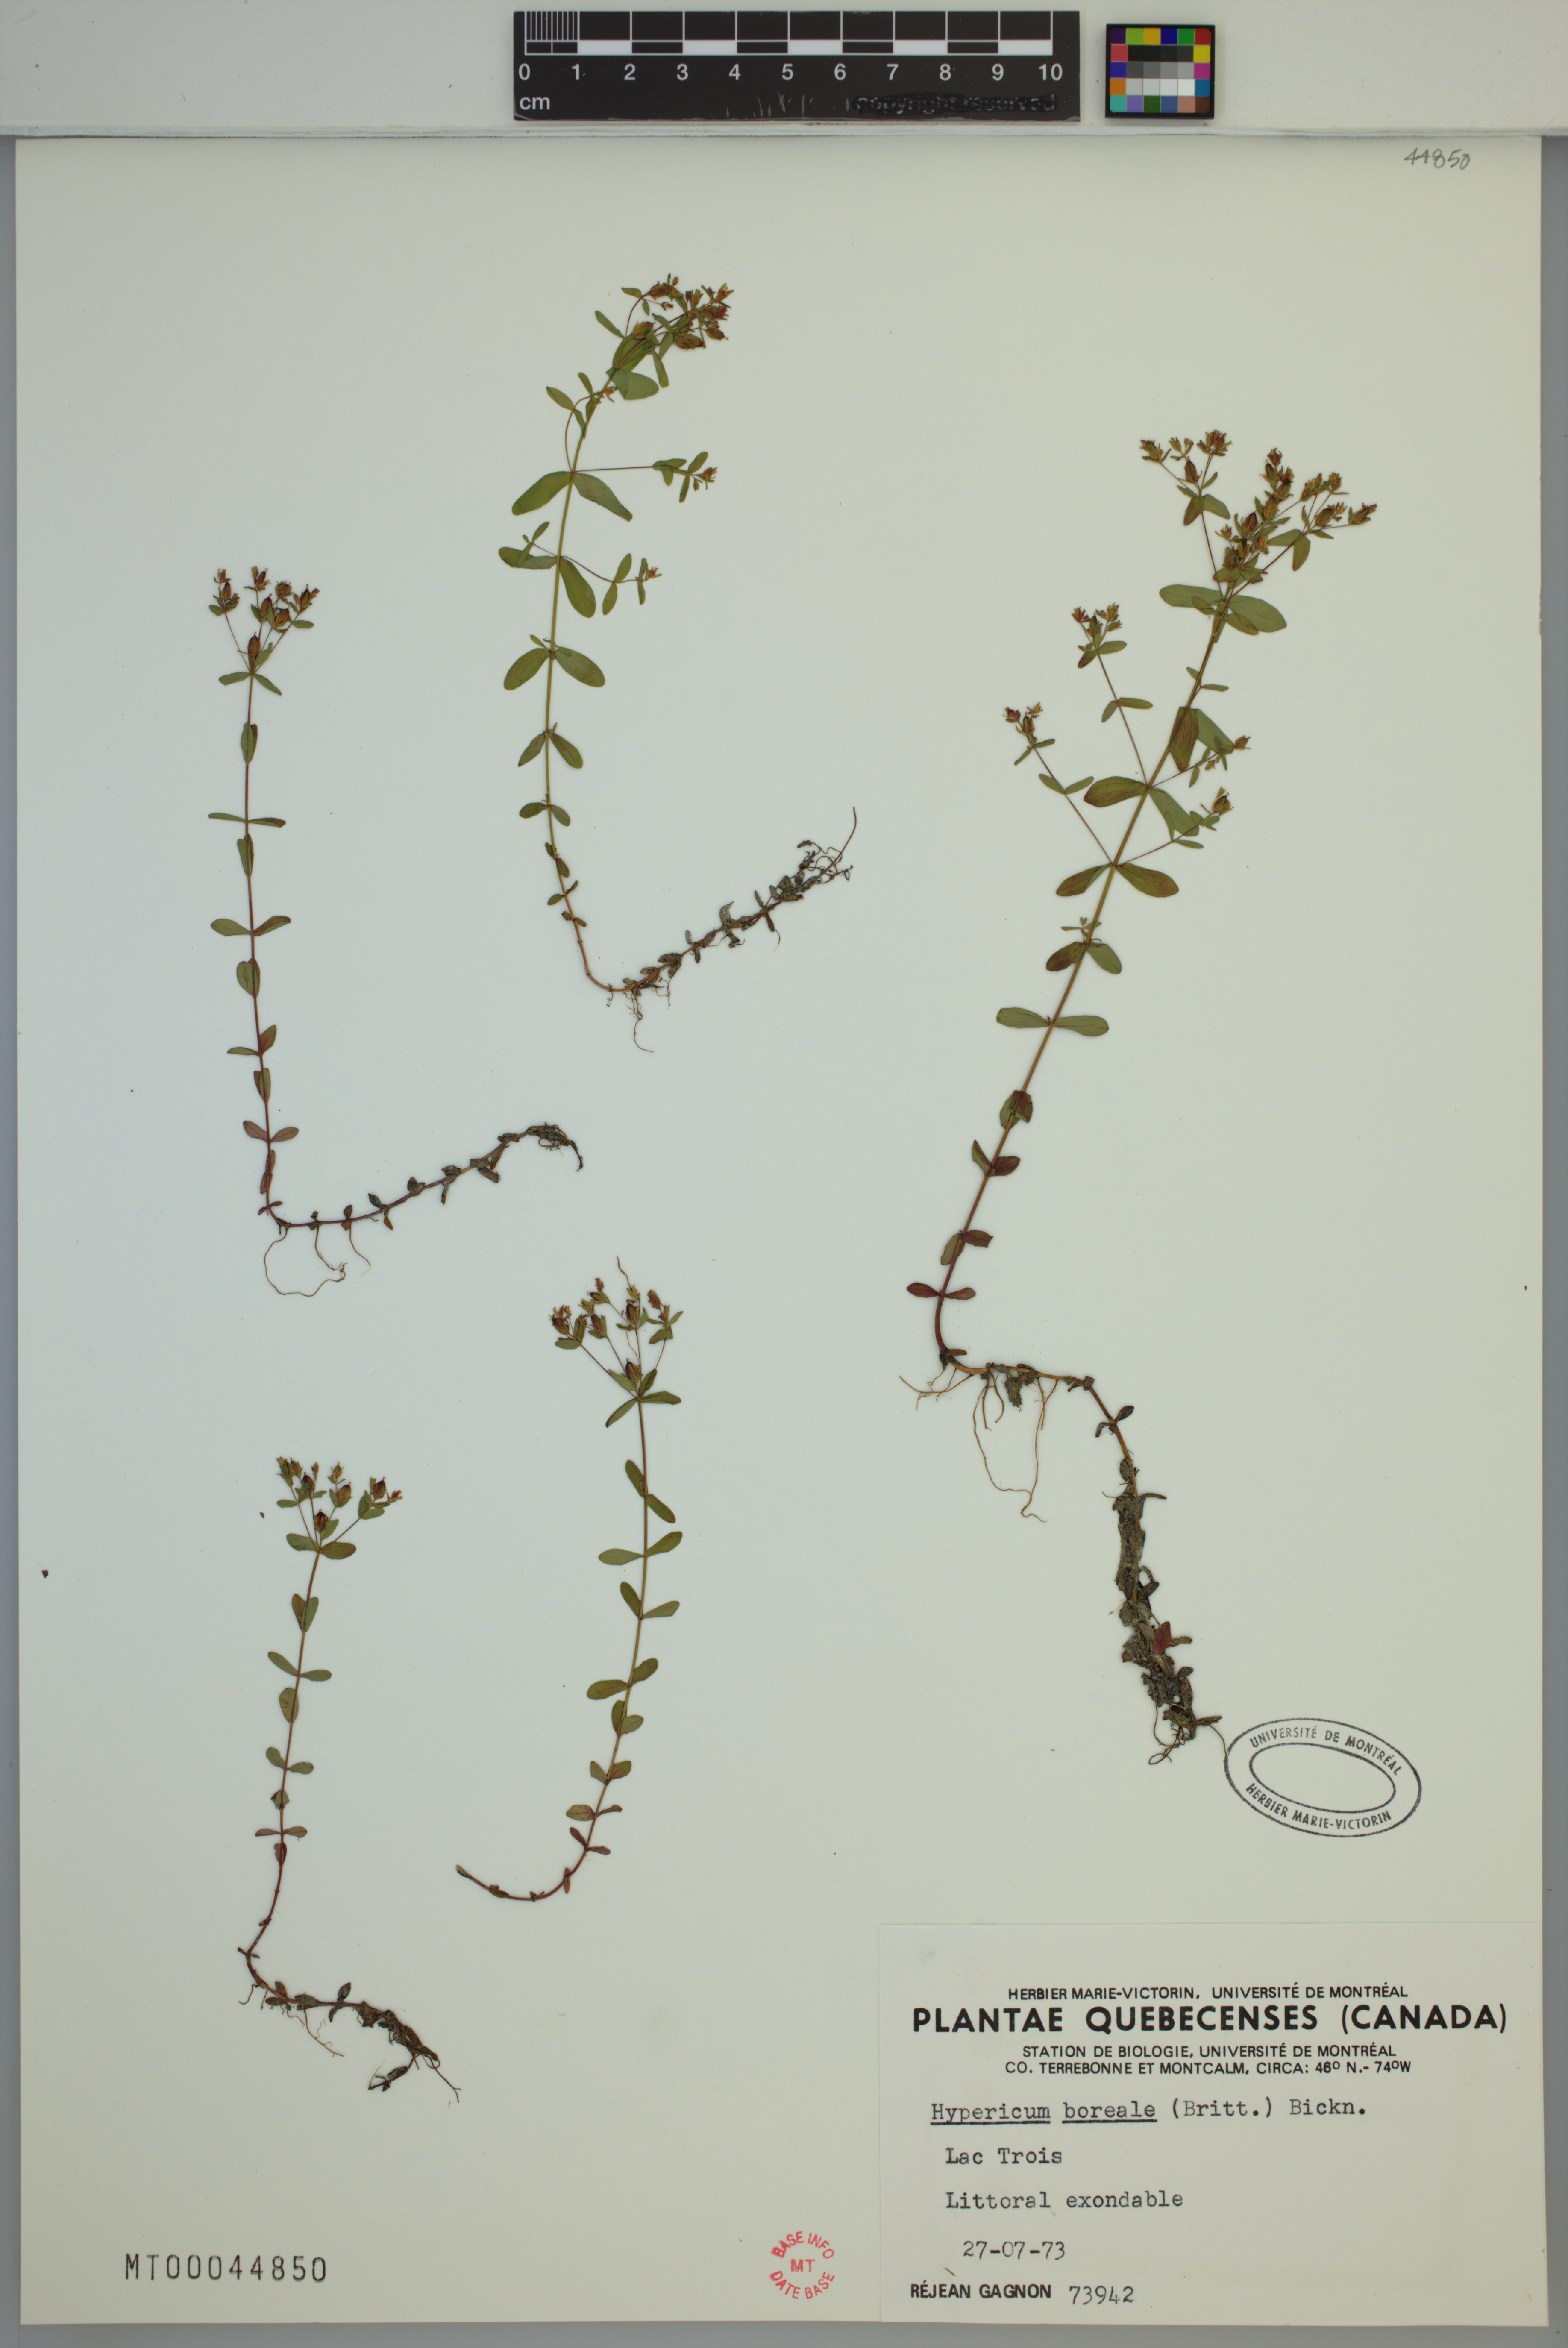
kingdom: Plantae
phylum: Tracheophyta
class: Magnoliopsida
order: Malpighiales
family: Hypericaceae
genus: Hypericum
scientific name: Hypericum boreale
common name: Northern bog st. john's-wort
